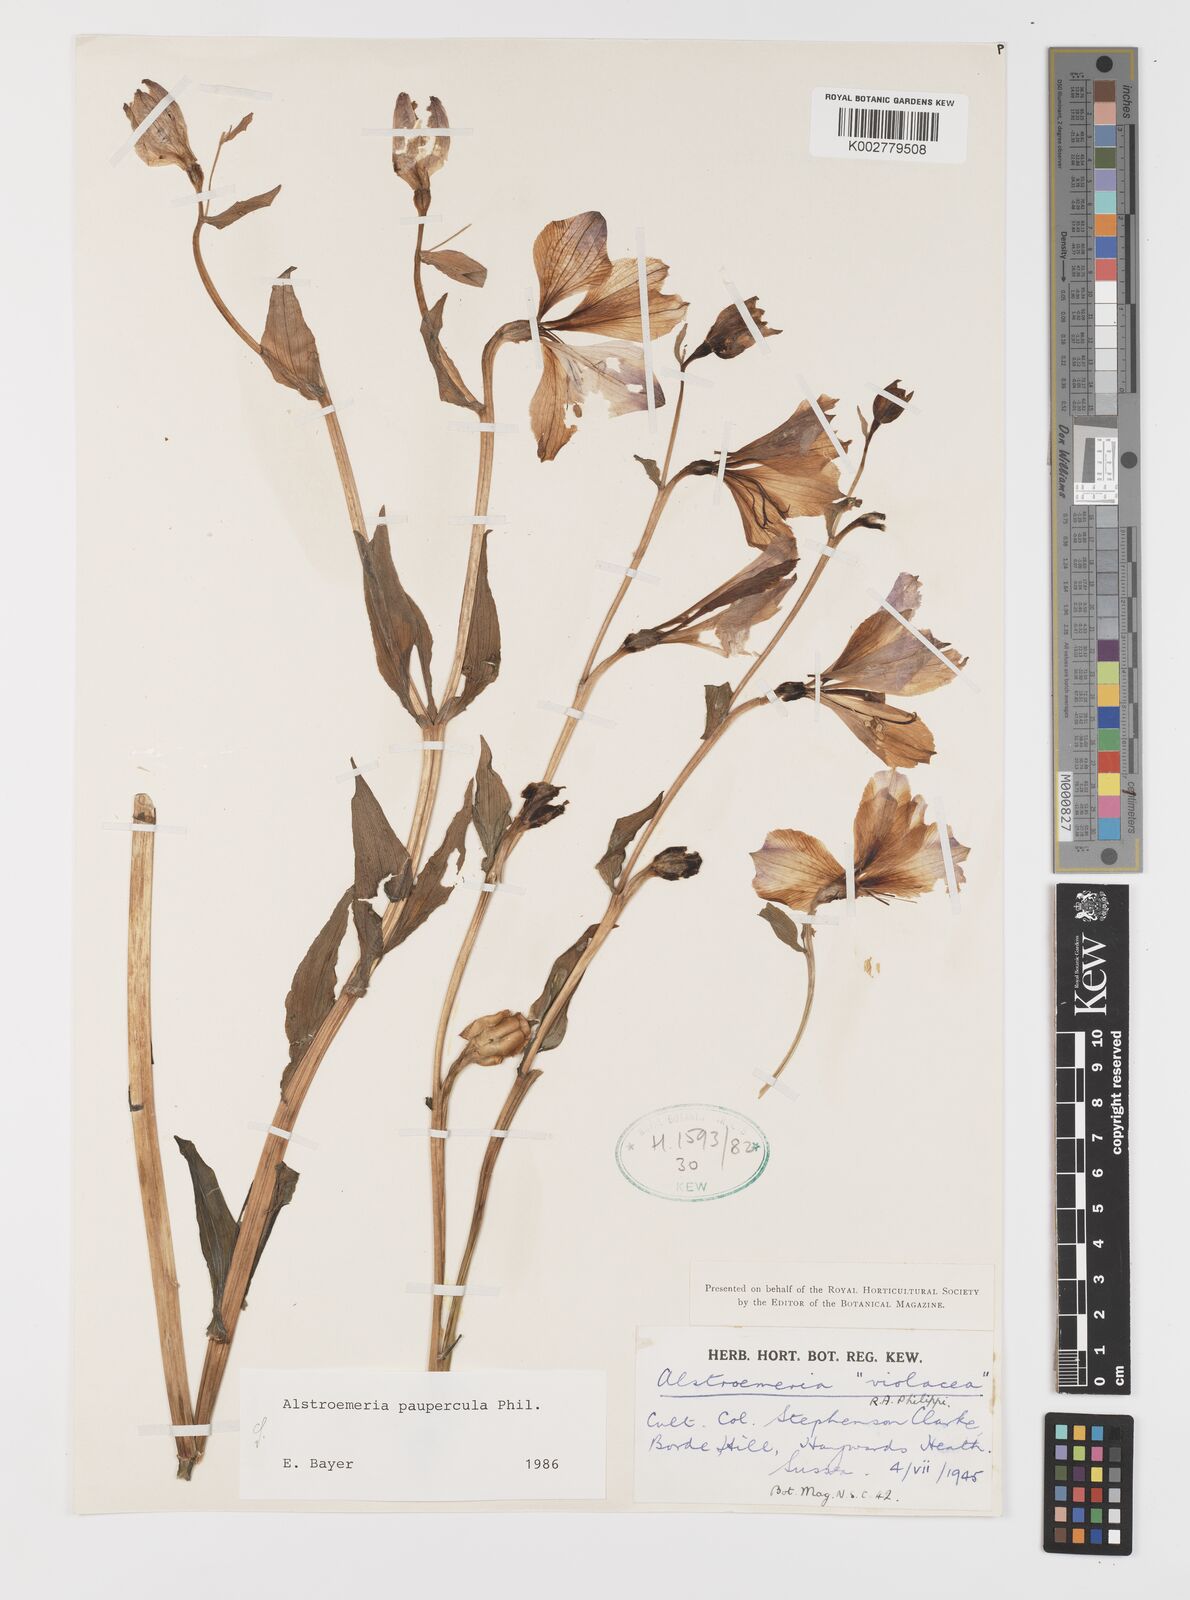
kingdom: Plantae
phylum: Tracheophyta
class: Liliopsida
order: Liliales
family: Alstroemeriaceae
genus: Alstroemeria
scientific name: Alstroemeria philippii
